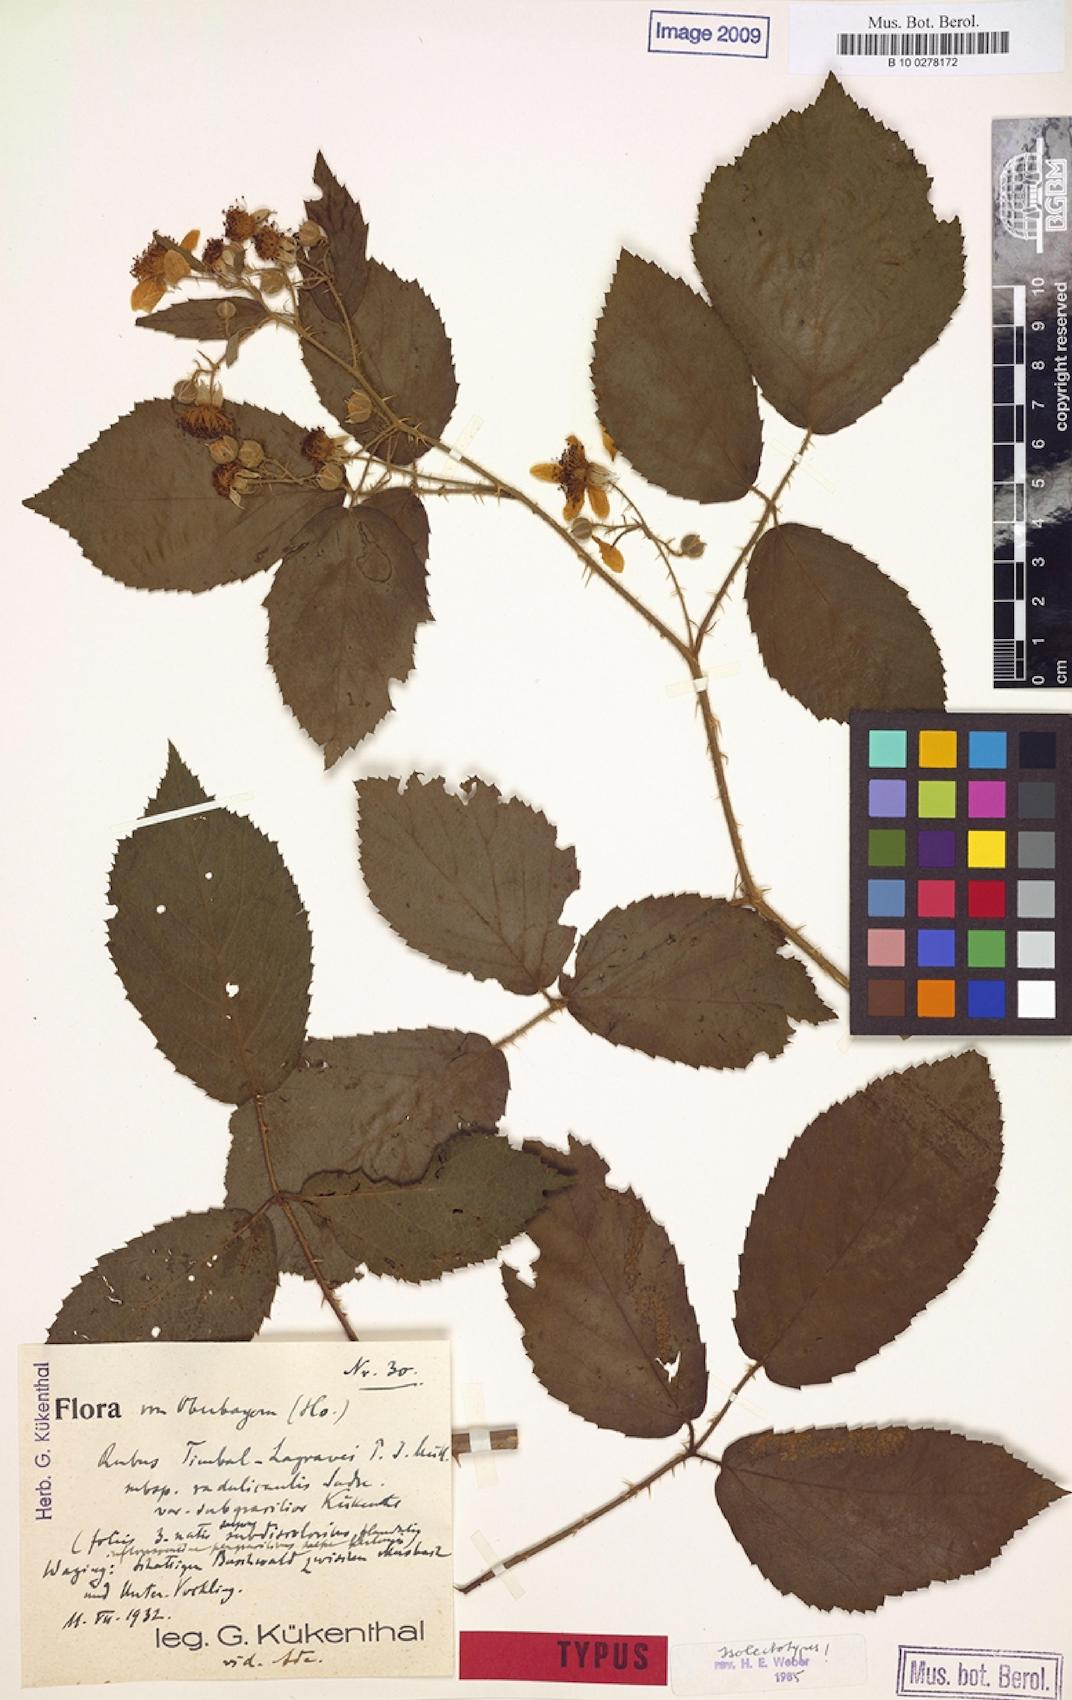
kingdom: Plantae
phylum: Tracheophyta
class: Magnoliopsida
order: Rosales
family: Rosaceae
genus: Rubus
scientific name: Rubus platycephalus
